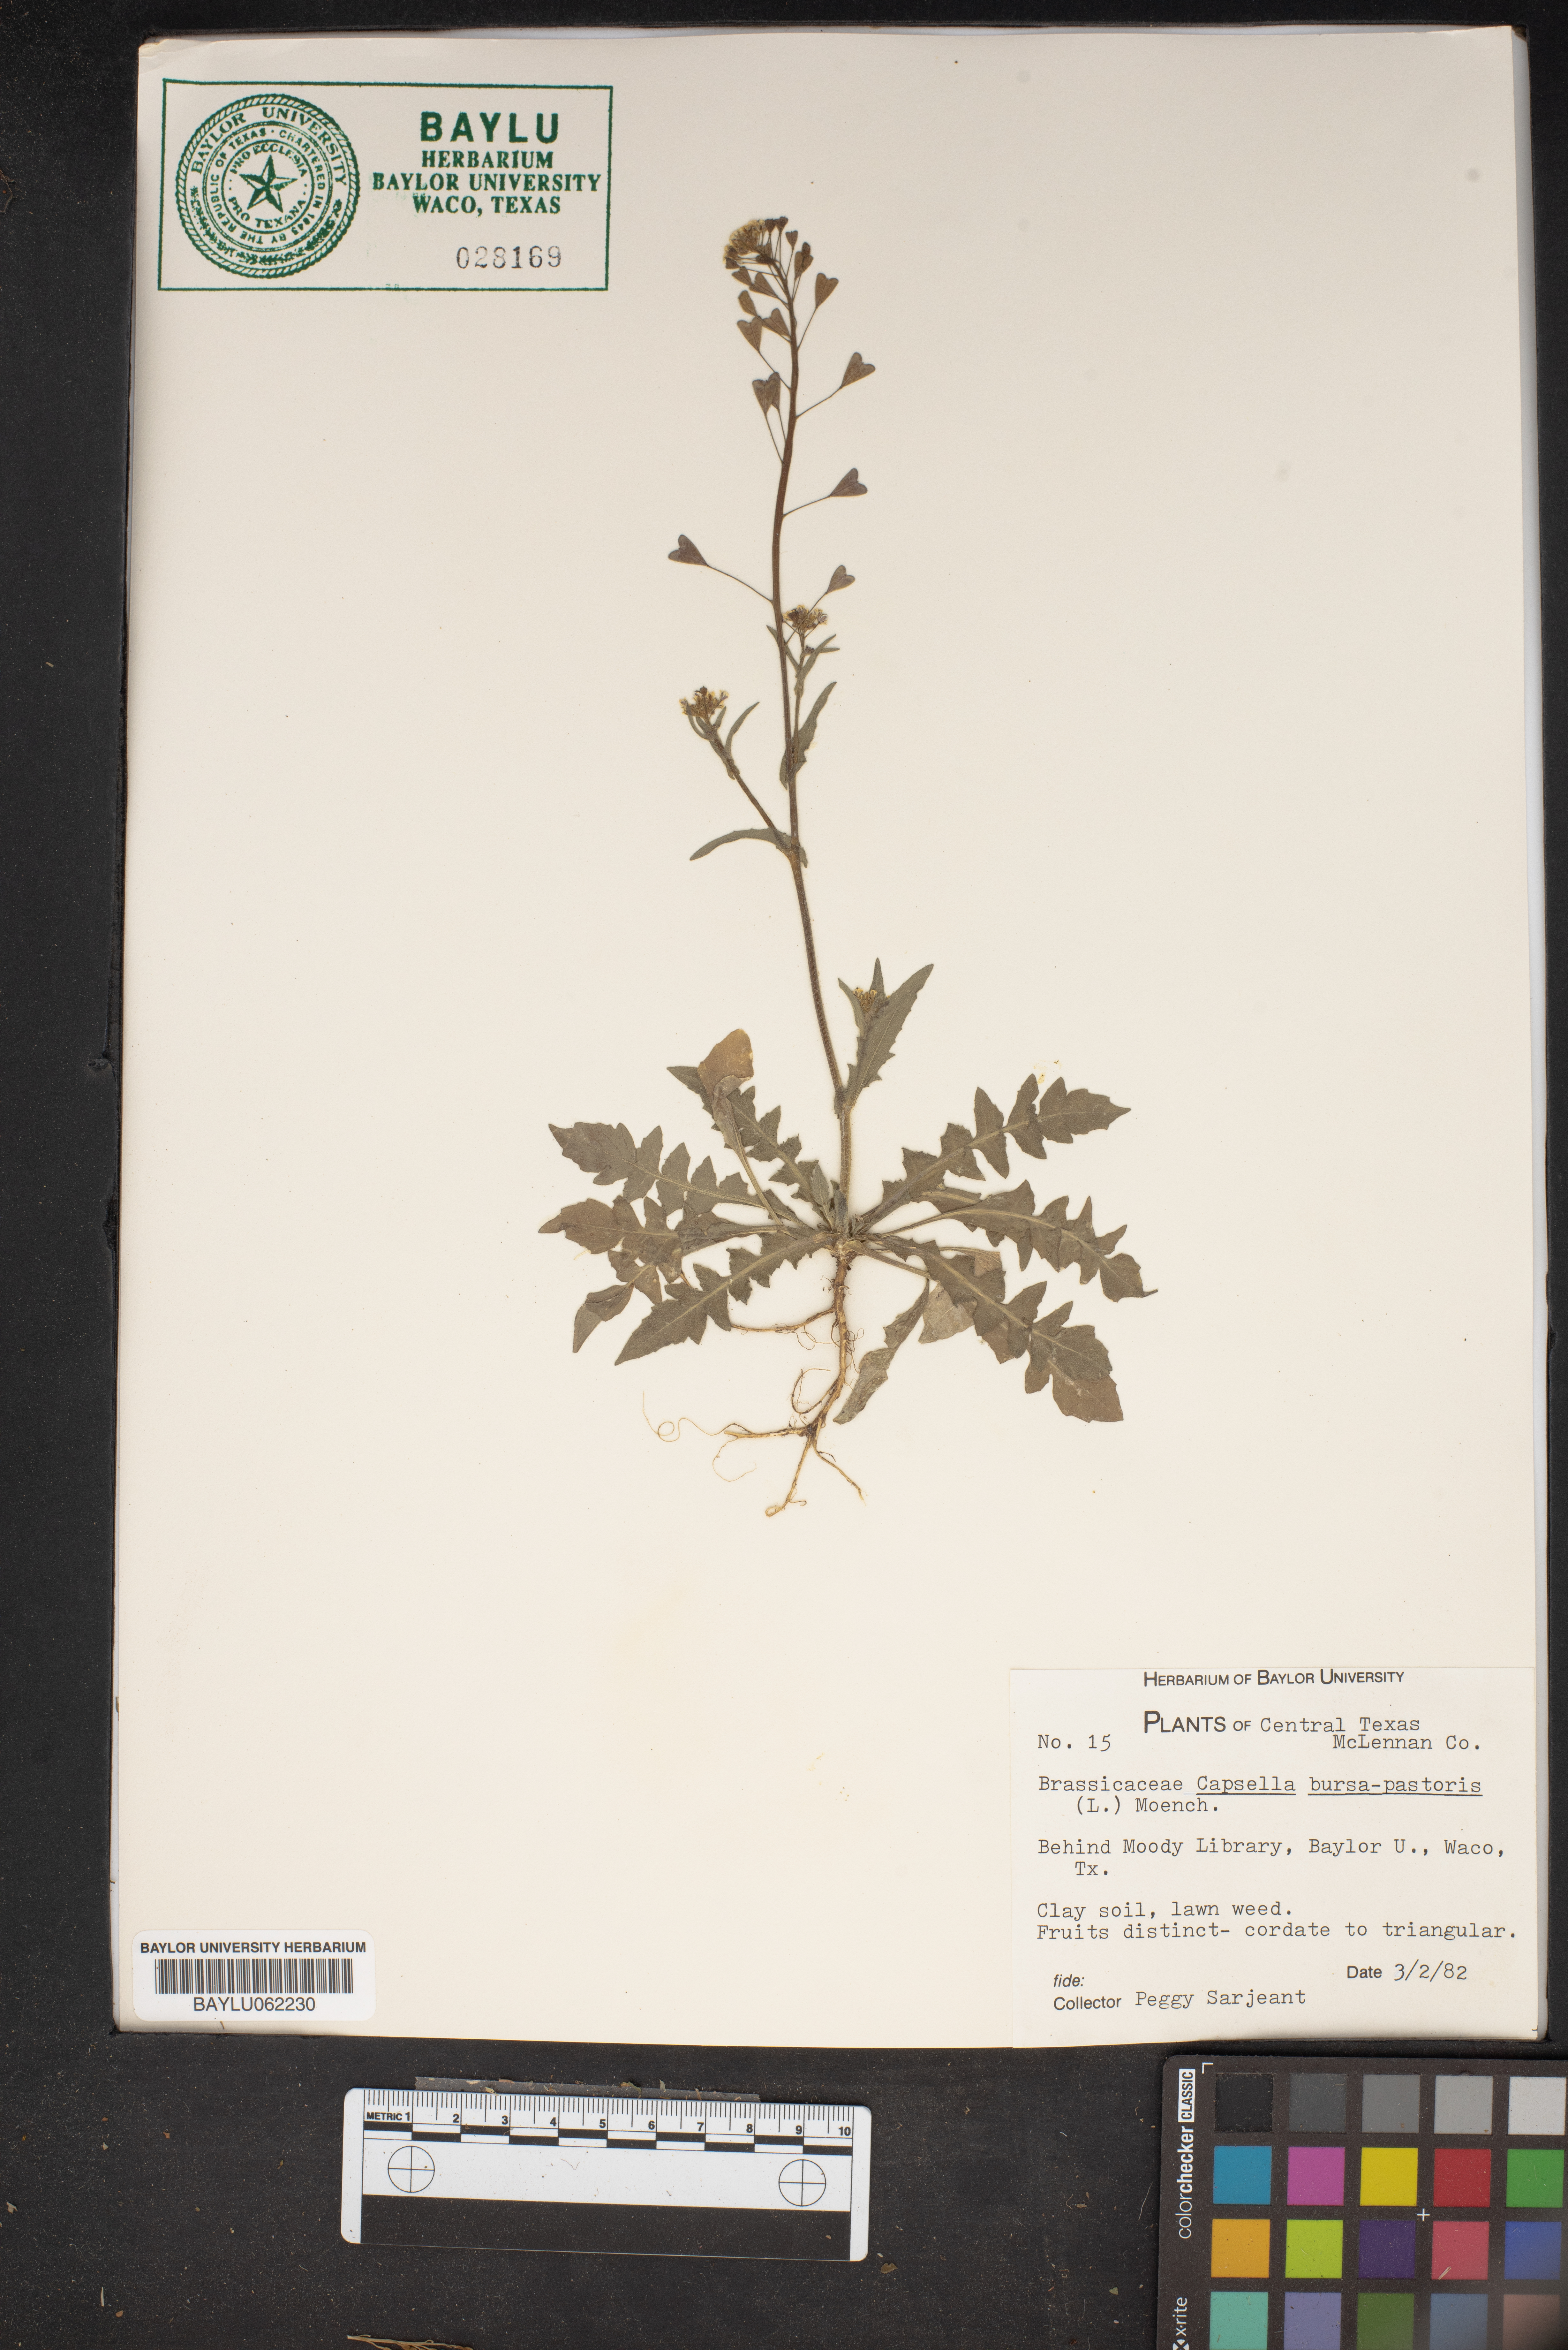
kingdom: Plantae
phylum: Tracheophyta
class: Magnoliopsida
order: Brassicales
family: Brassicaceae
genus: Capsella
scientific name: Capsella bursa-pastoris
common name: Shepherd's purse
